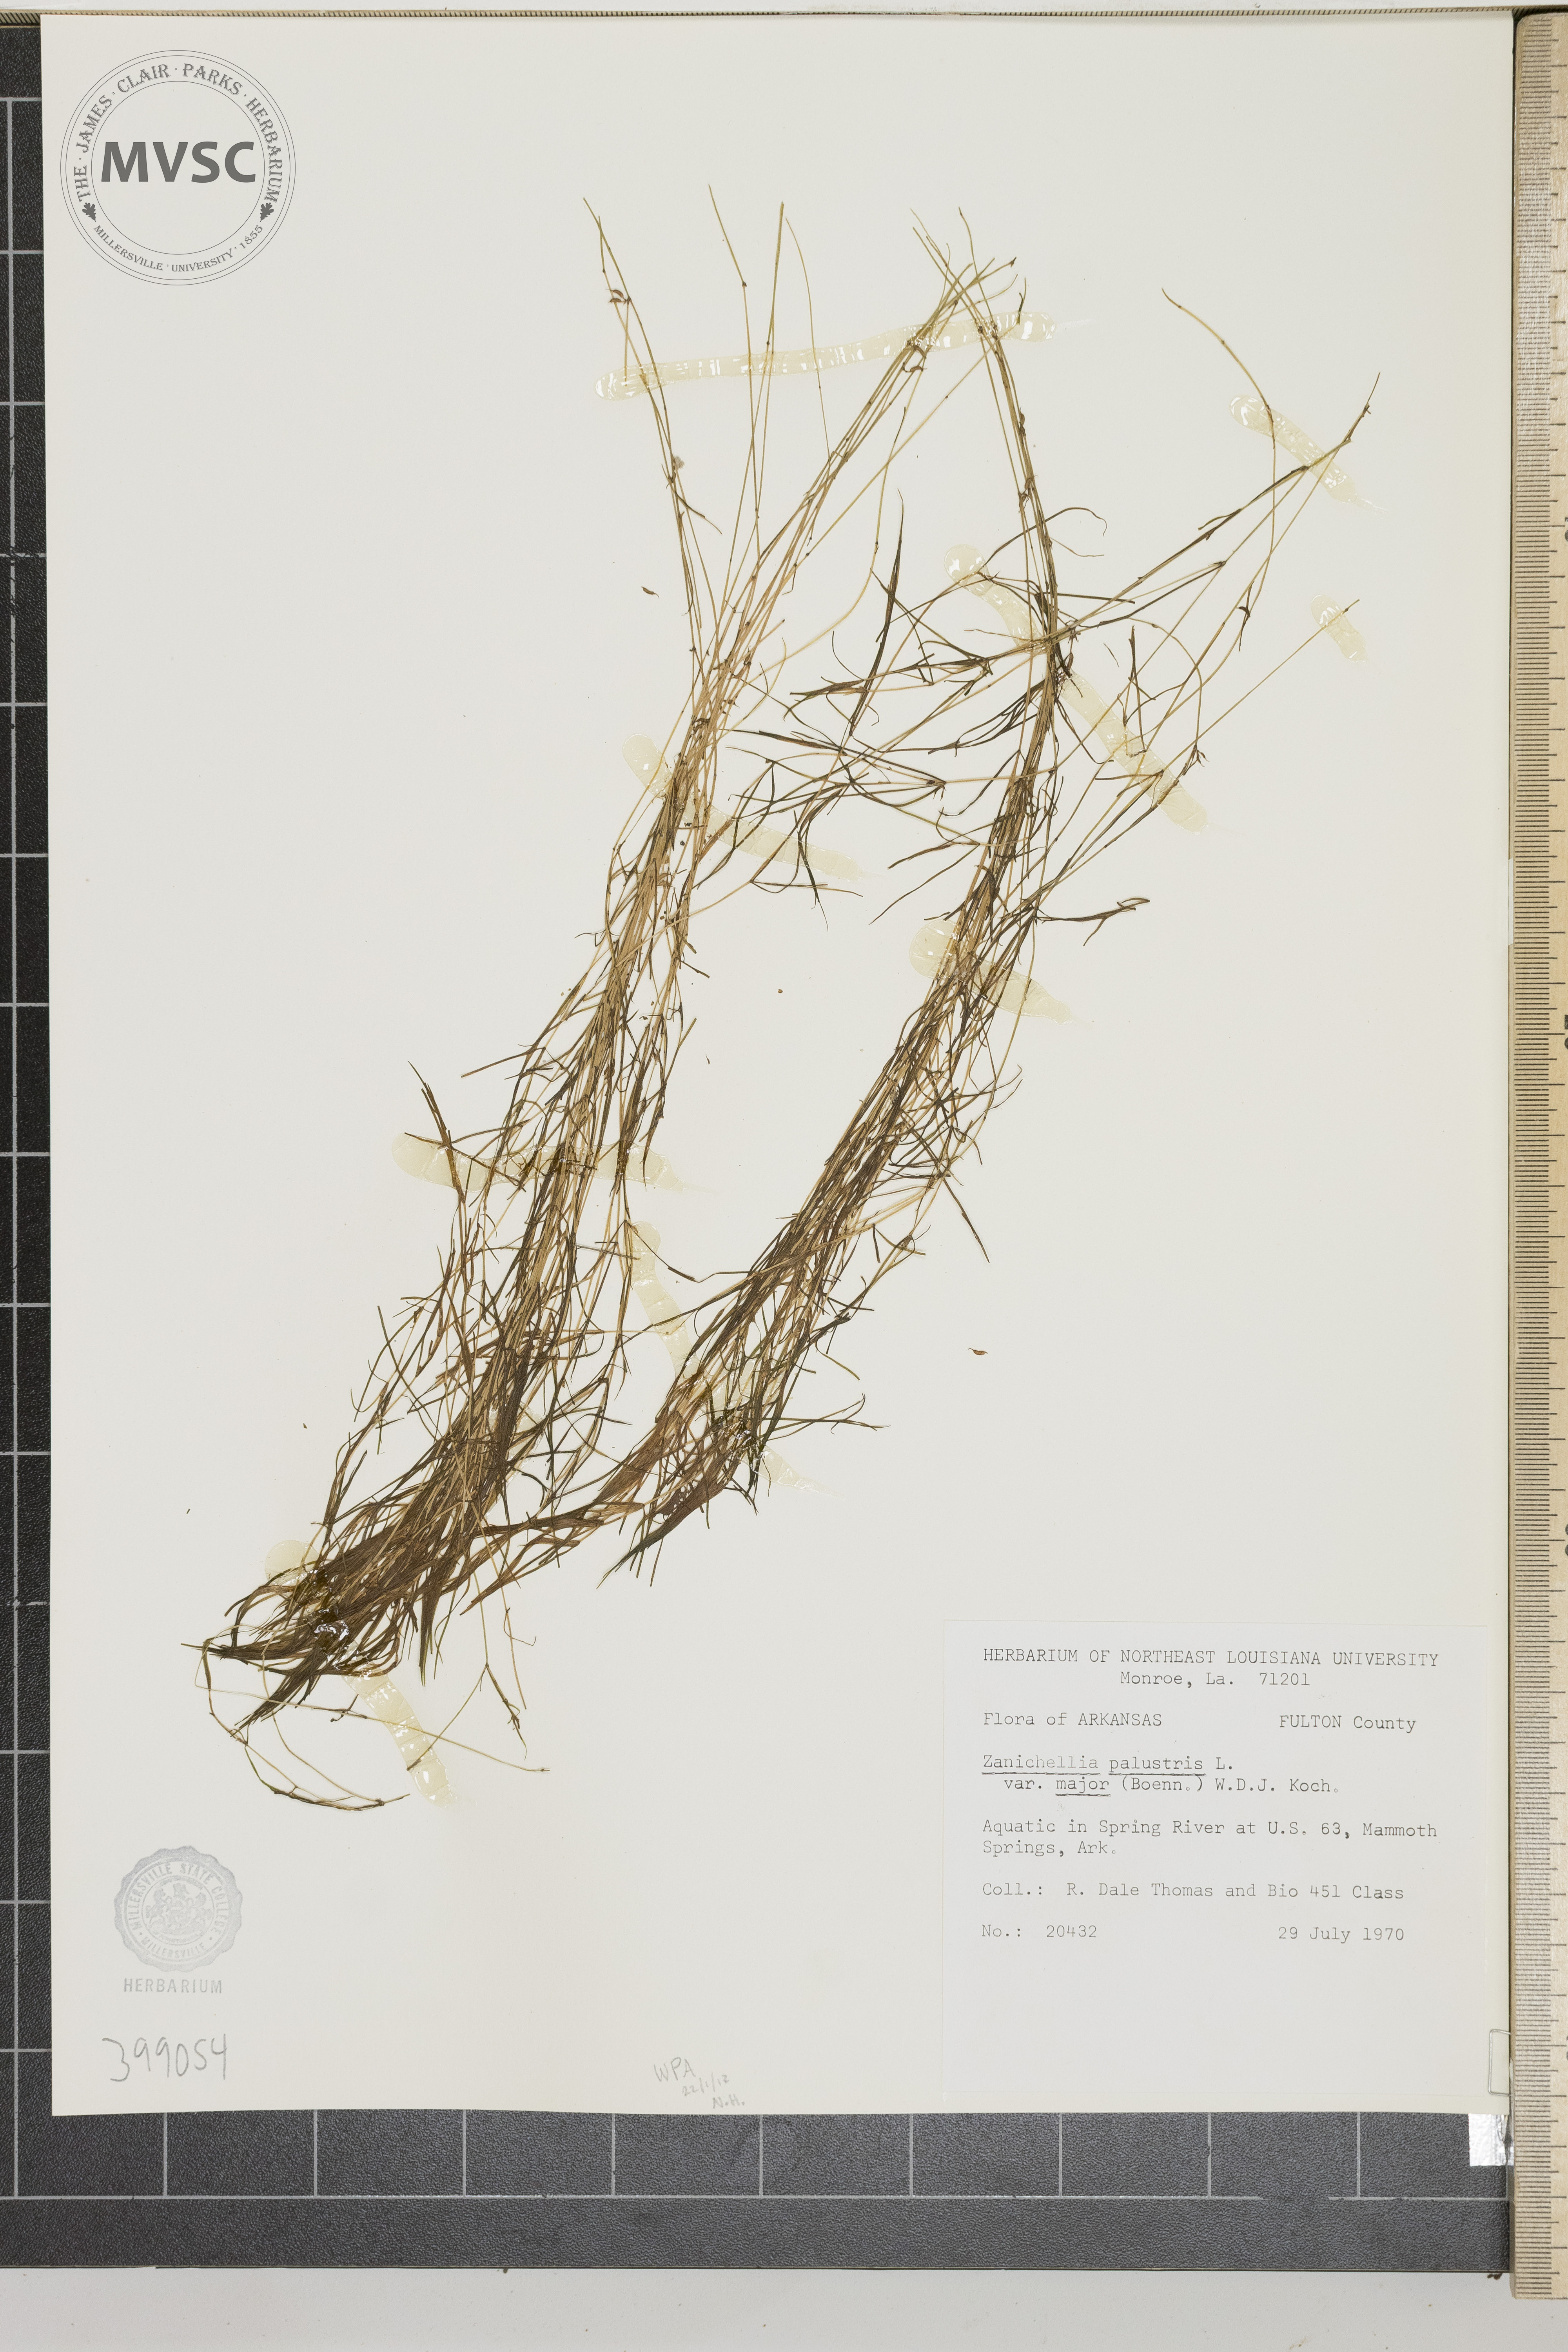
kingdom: Plantae
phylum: Tracheophyta
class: Liliopsida
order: Alismatales
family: Potamogetonaceae
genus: Zannichellia
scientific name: Zannichellia palustris
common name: Horned pondweed
